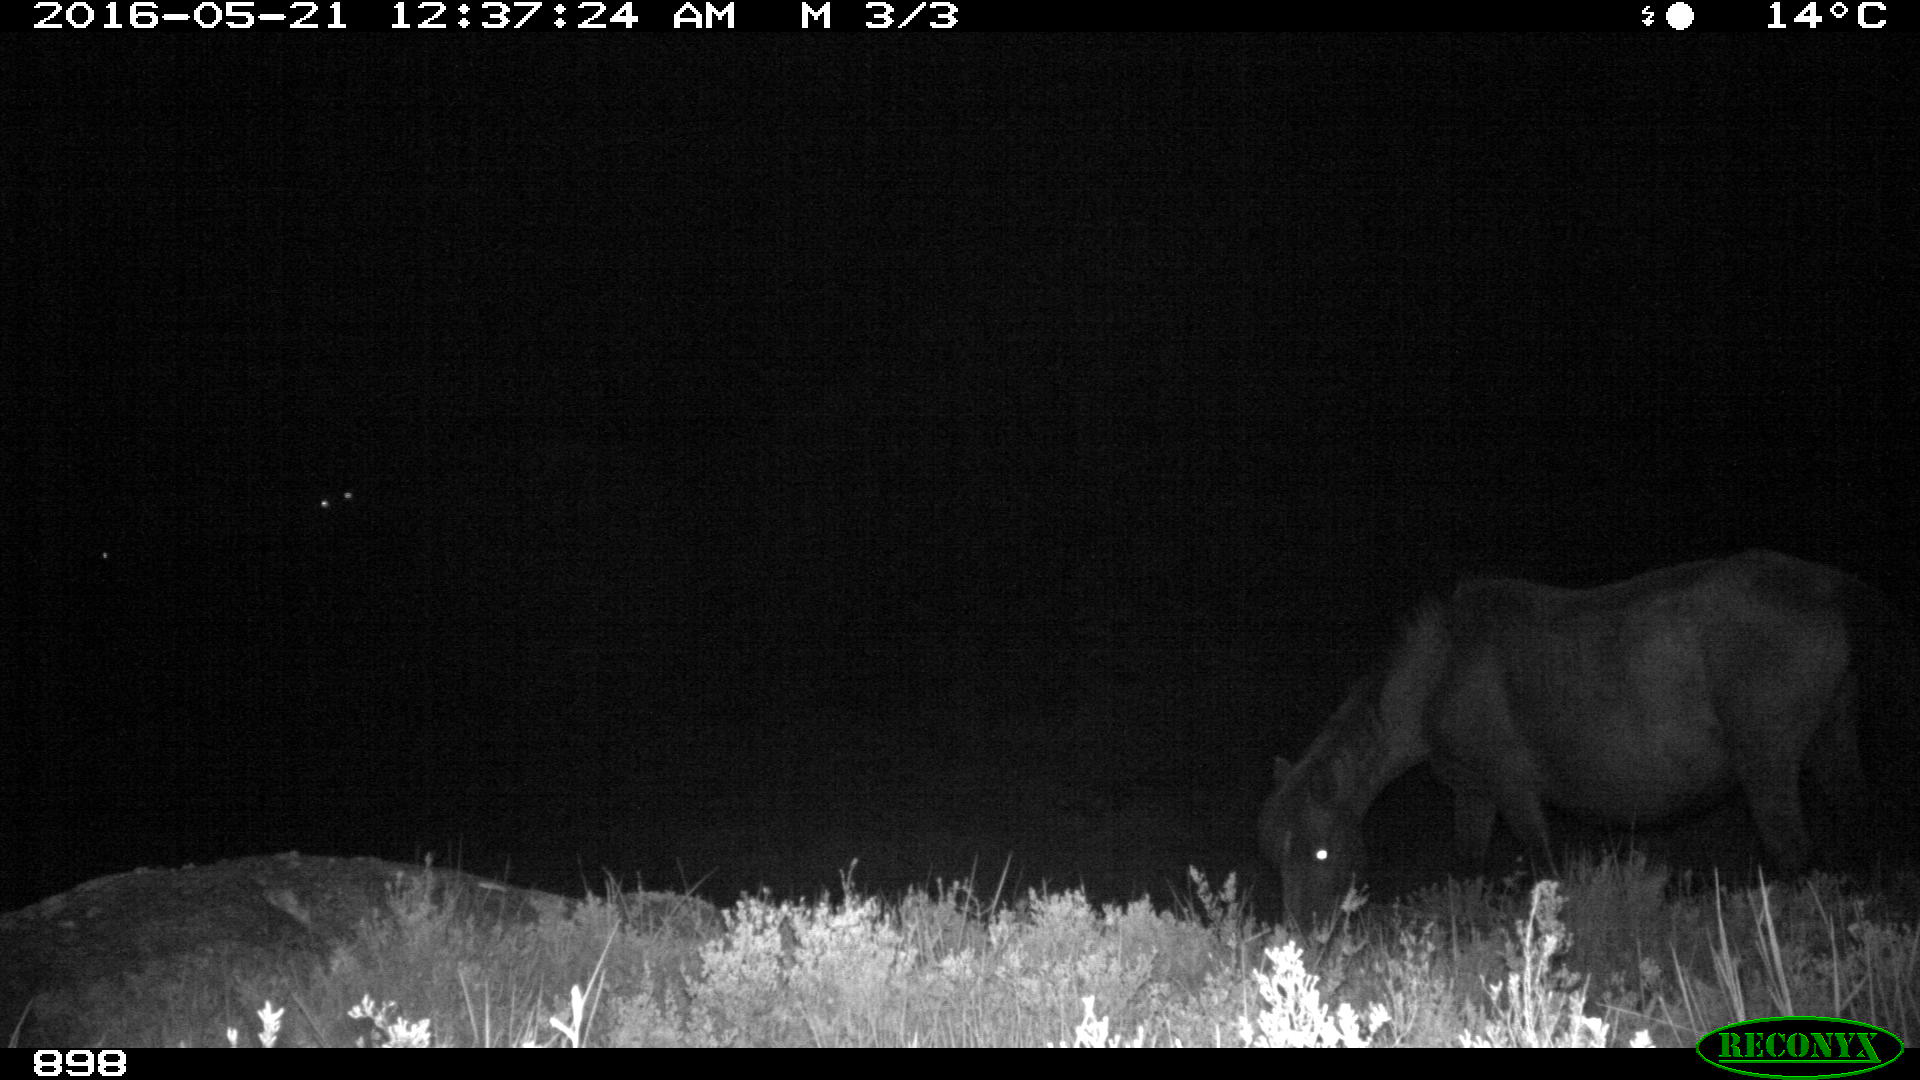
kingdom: Animalia
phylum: Chordata
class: Mammalia
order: Perissodactyla
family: Equidae
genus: Equus
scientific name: Equus caballus
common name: Horse
